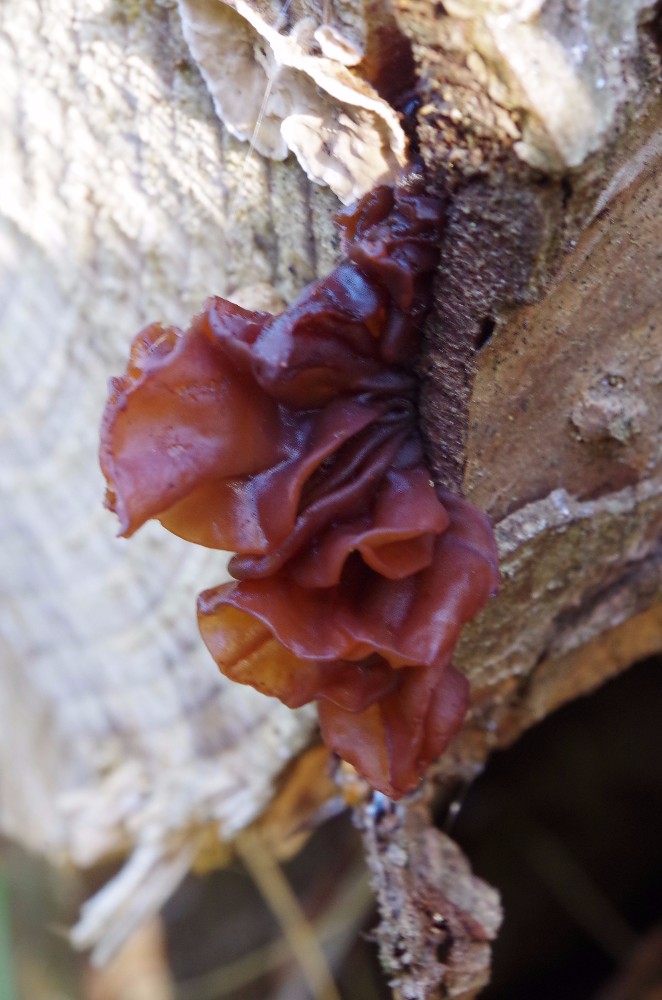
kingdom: Fungi
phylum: Basidiomycota
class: Tremellomycetes
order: Tremellales
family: Tremellaceae
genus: Phaeotremella
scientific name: Phaeotremella foliacea
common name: brun bævresvamp
